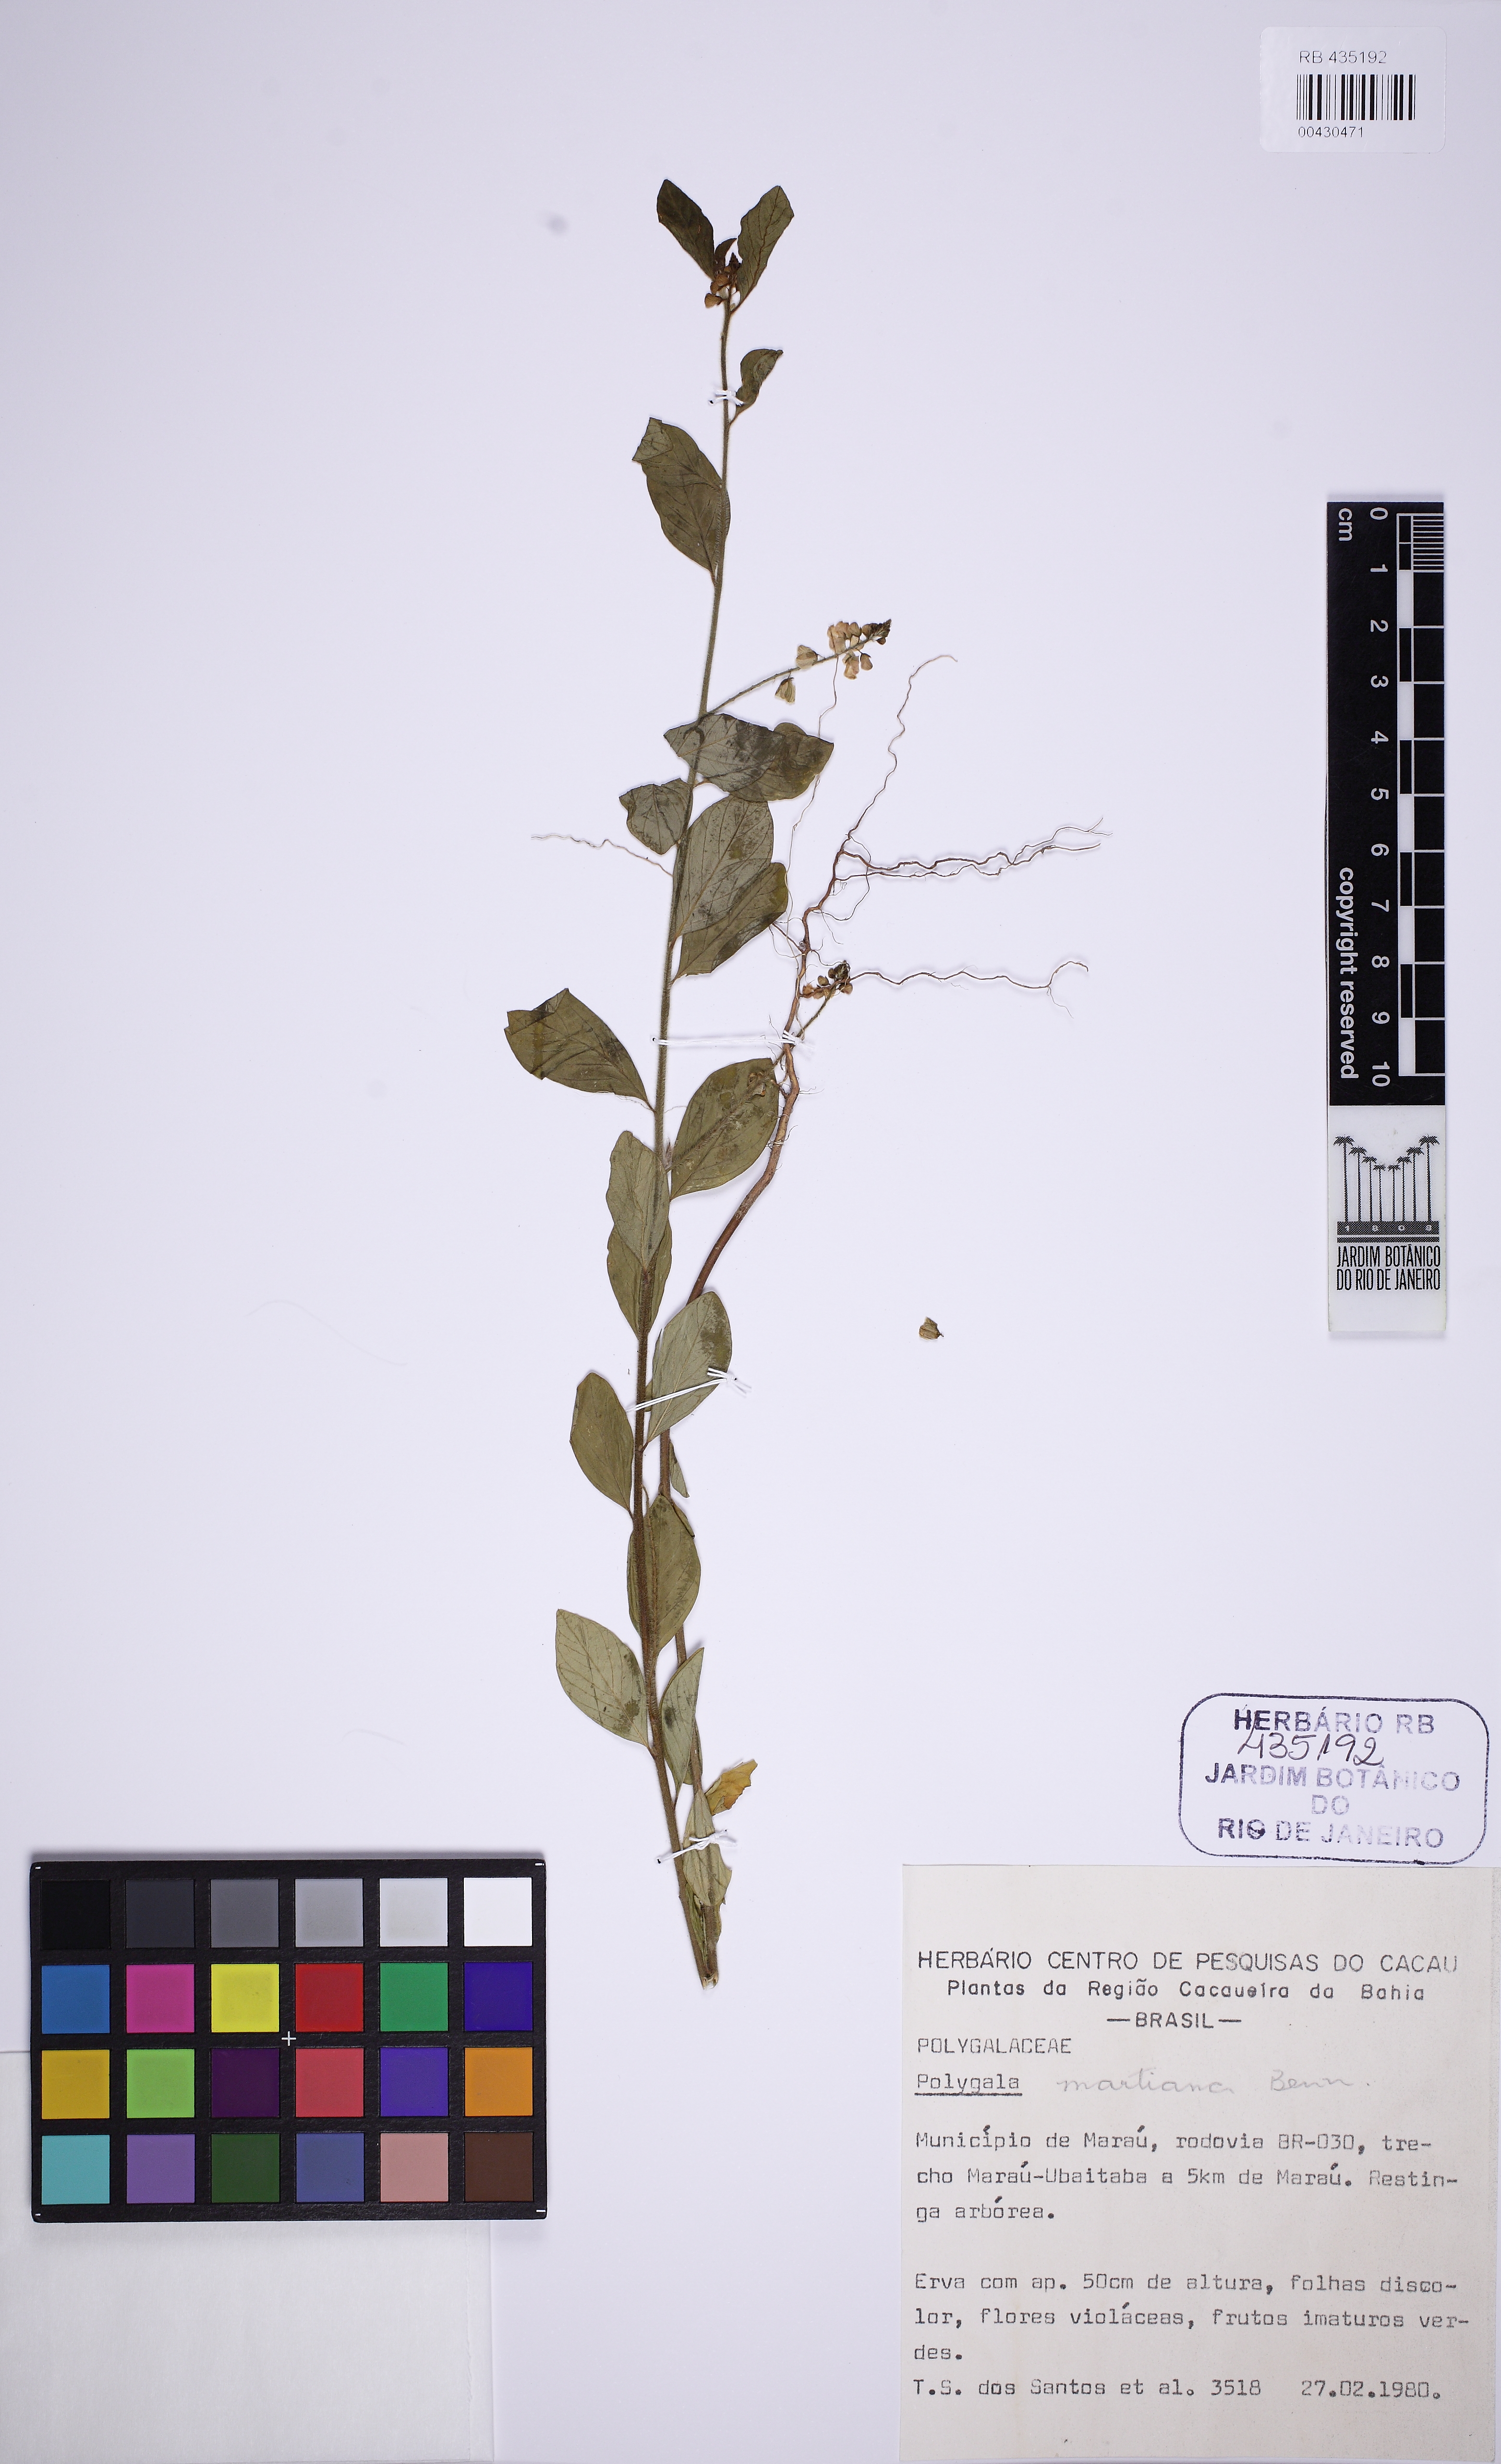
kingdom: Plantae
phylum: Tracheophyta
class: Magnoliopsida
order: Fabales
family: Polygalaceae
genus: Asemeia
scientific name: Asemeia martiana
